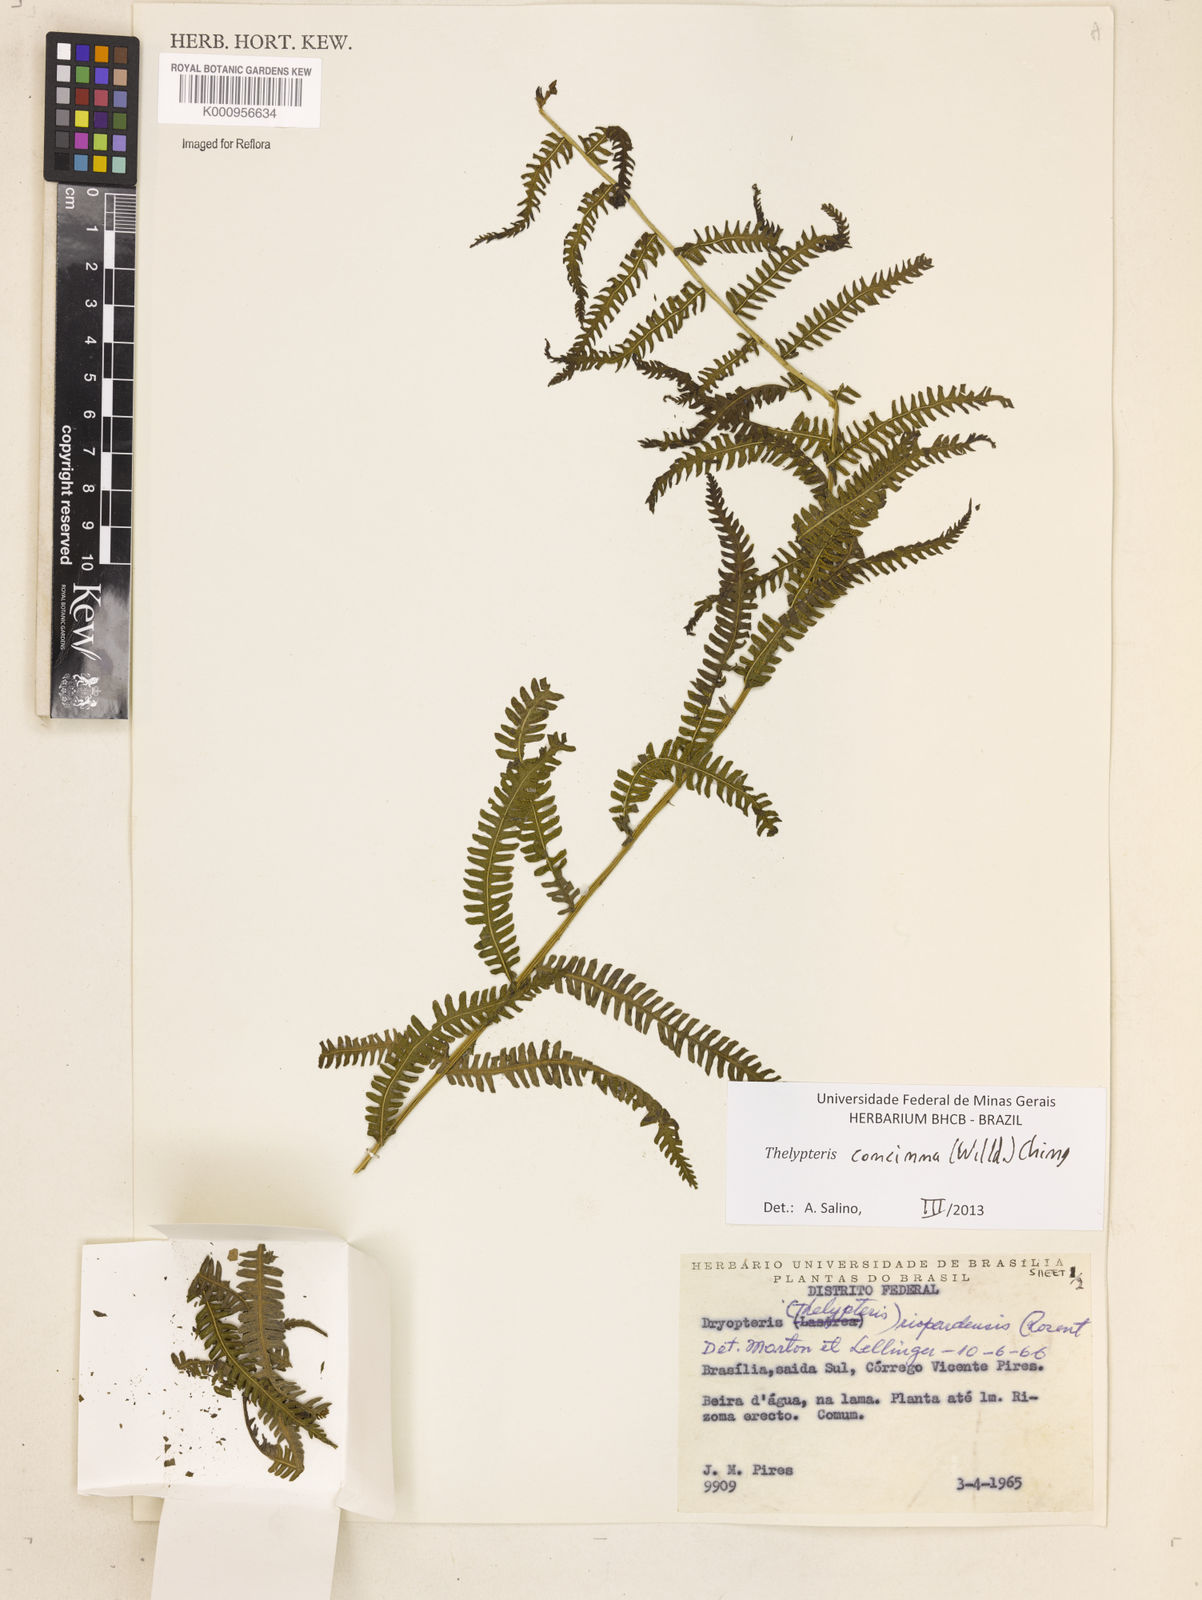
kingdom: Plantae
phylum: Tracheophyta
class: Polypodiopsida
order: Polypodiales
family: Thelypteridaceae
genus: Amauropelta
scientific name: Amauropelta concinna
